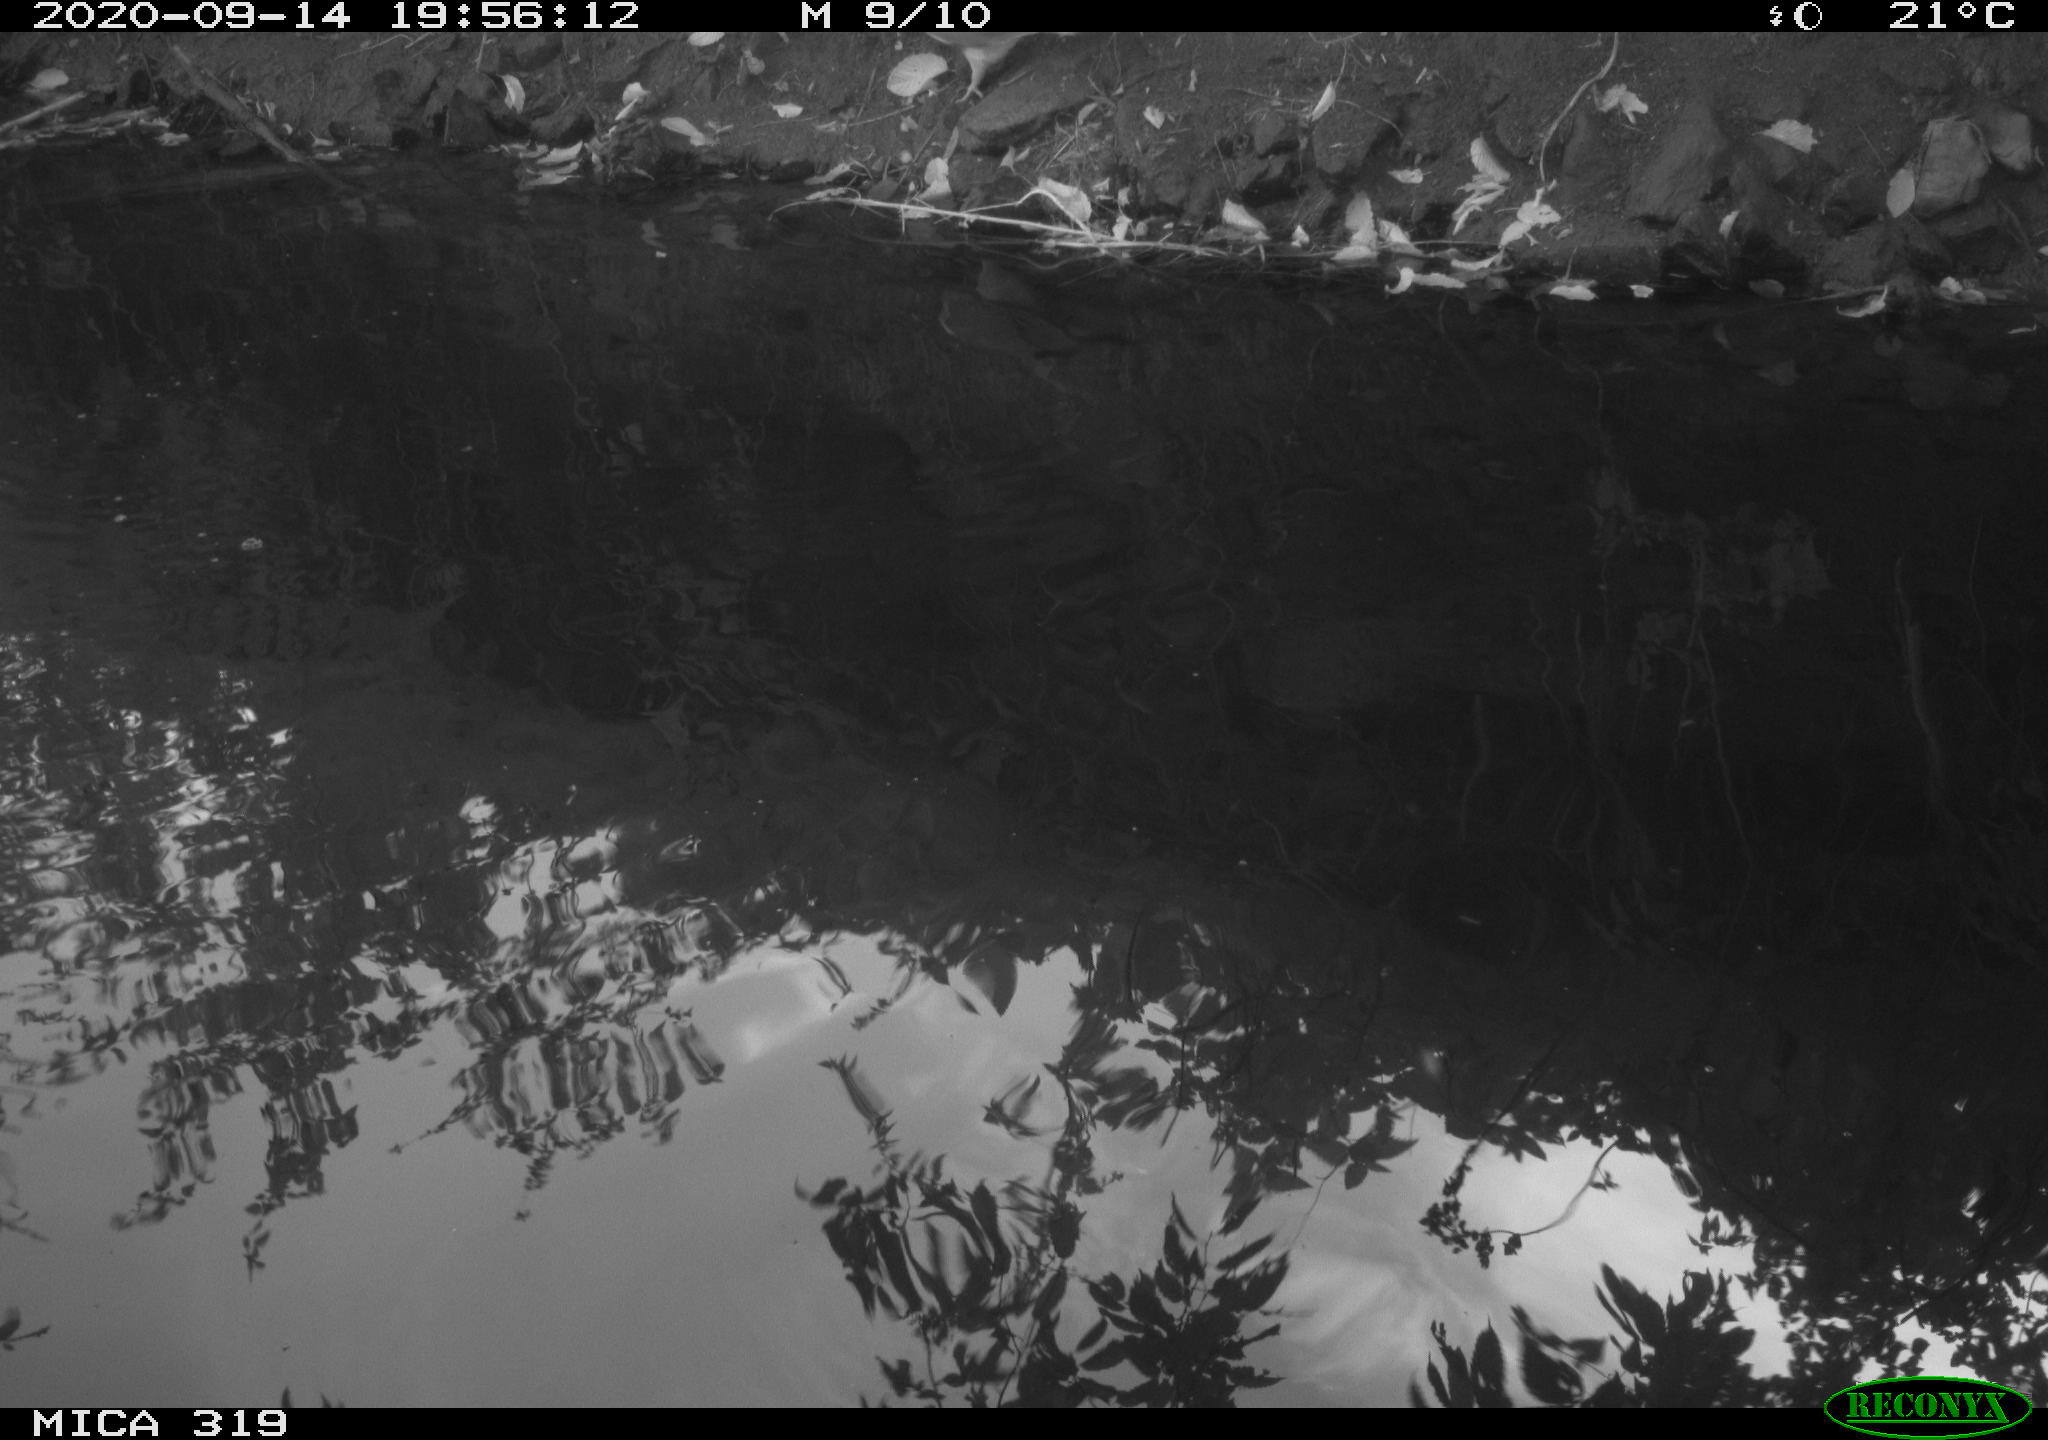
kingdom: Animalia
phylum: Chordata
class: Aves
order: Columbiformes
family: Columbidae
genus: Columba
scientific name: Columba palumbus
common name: Common wood pigeon
